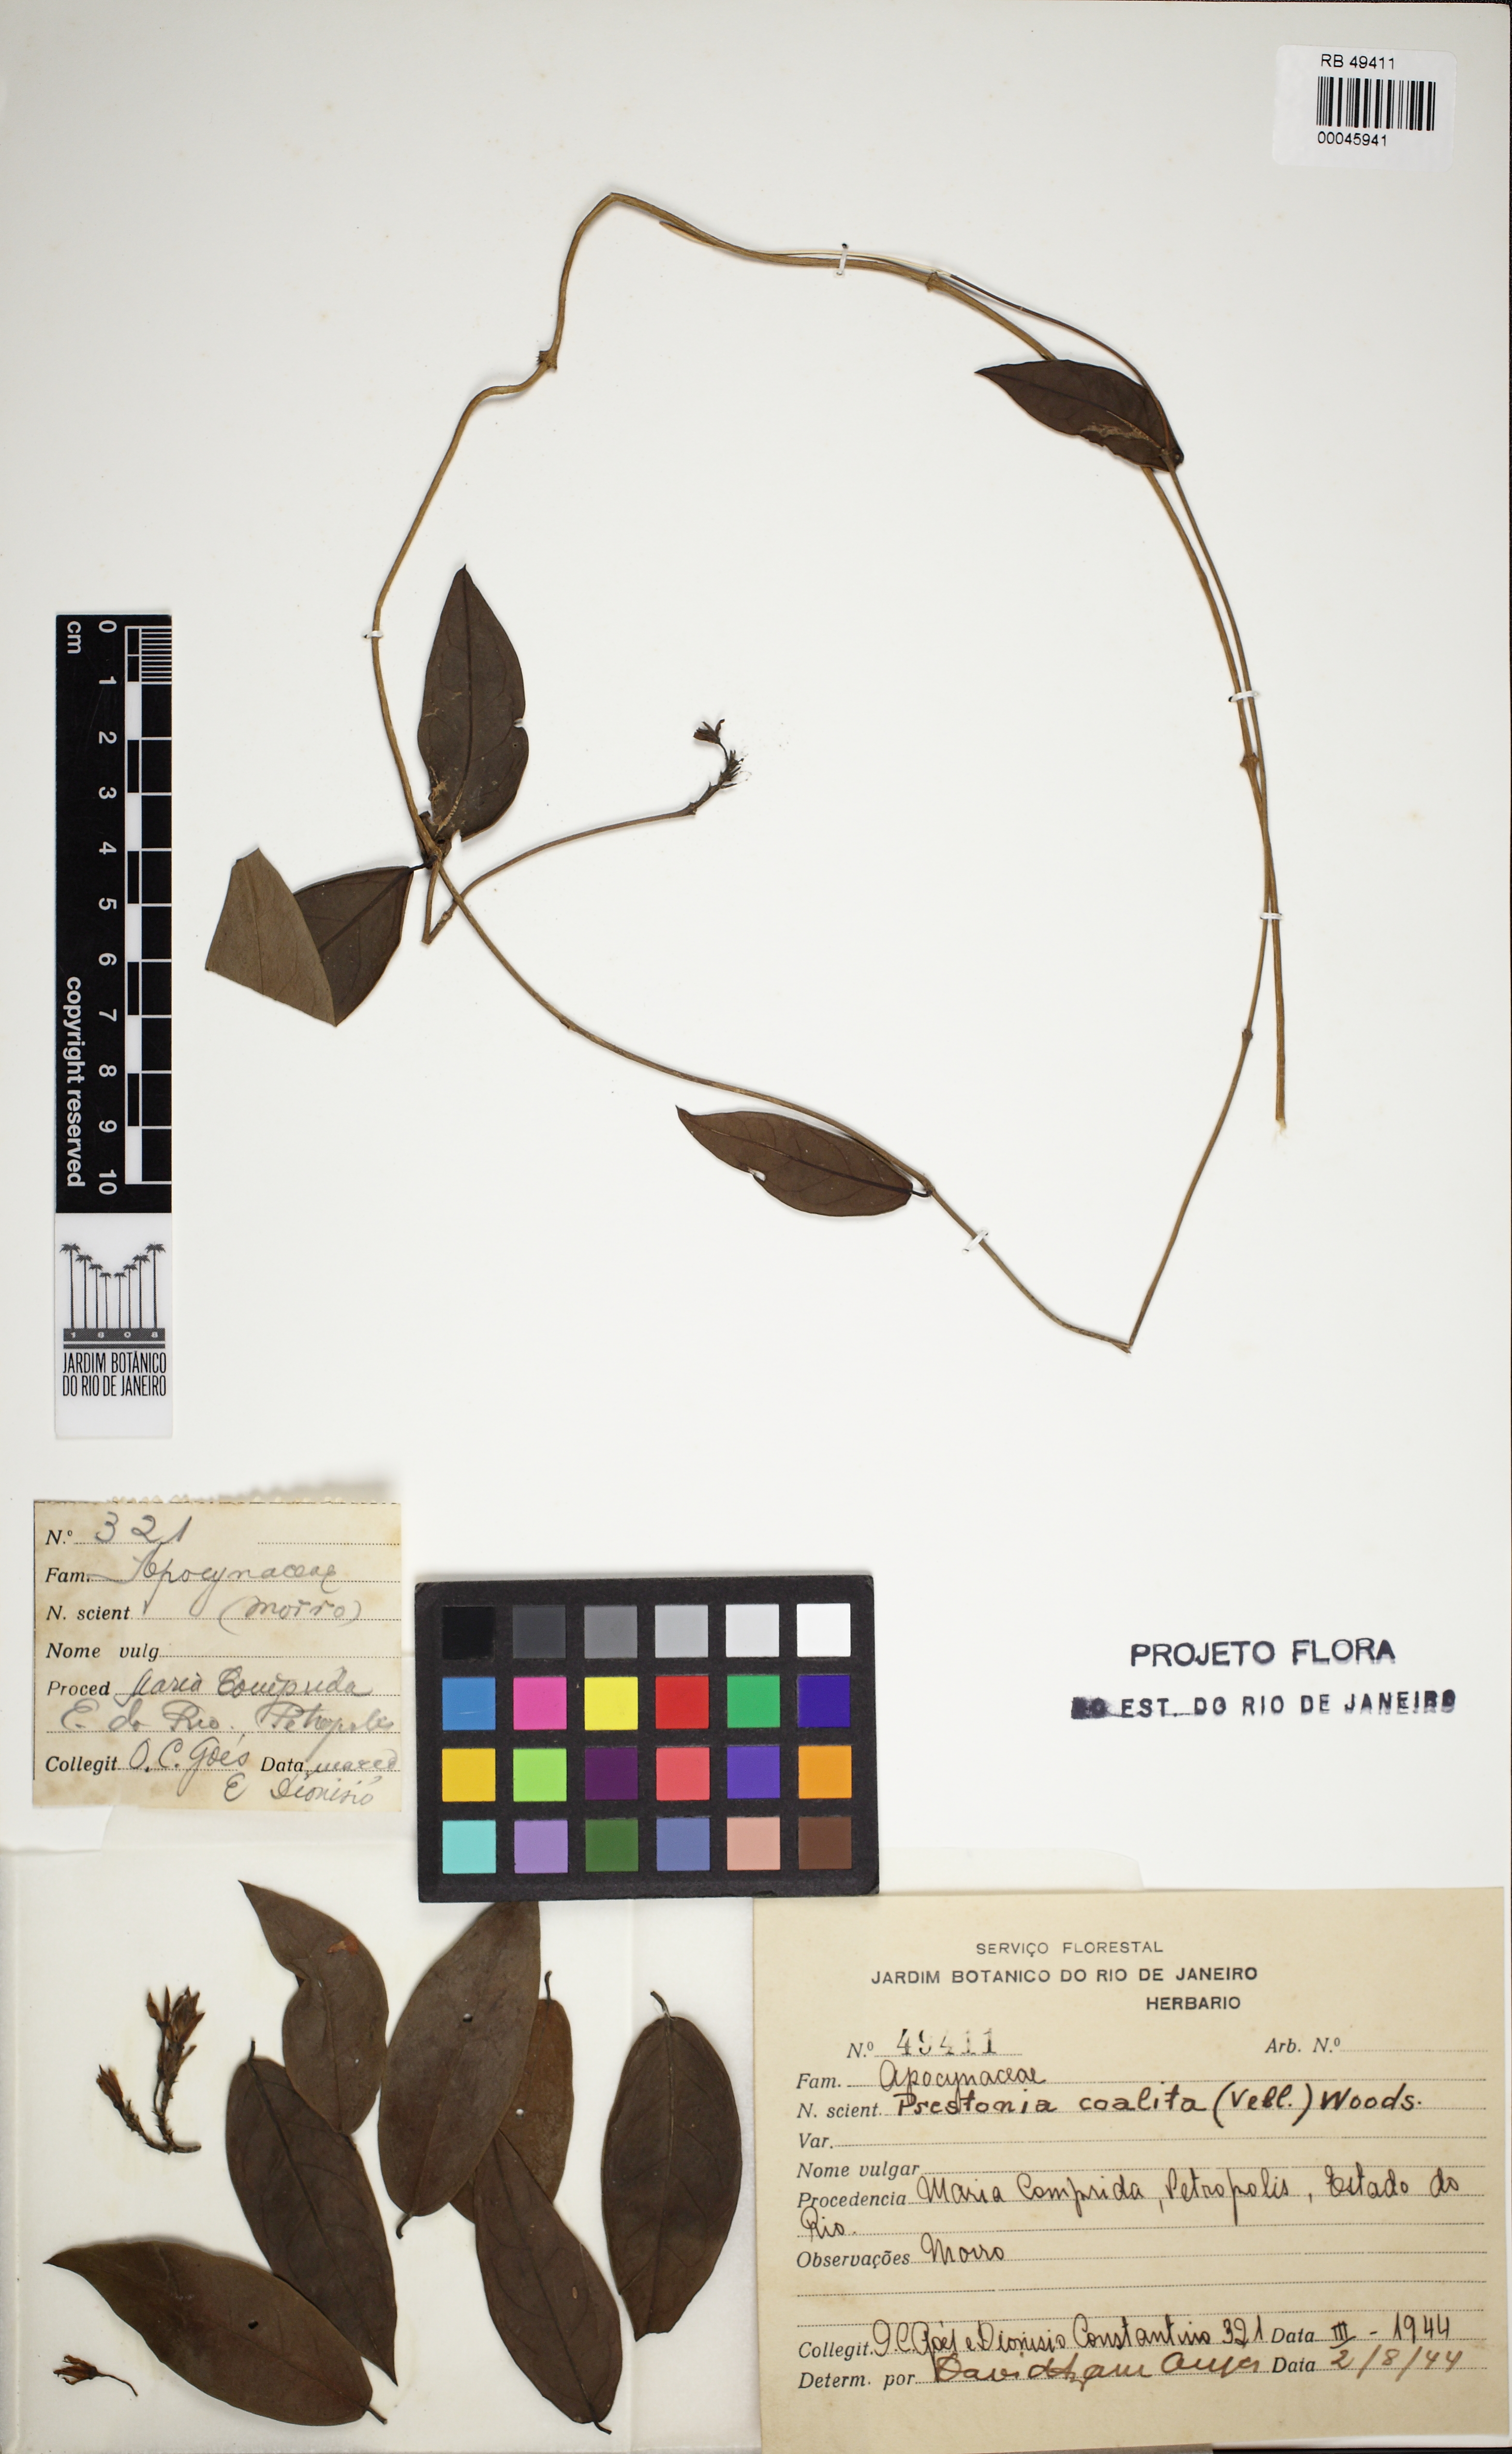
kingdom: Plantae
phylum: Tracheophyta
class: Magnoliopsida
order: Gentianales
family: Apocynaceae
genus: Echites
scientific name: Echites puntarenensis
